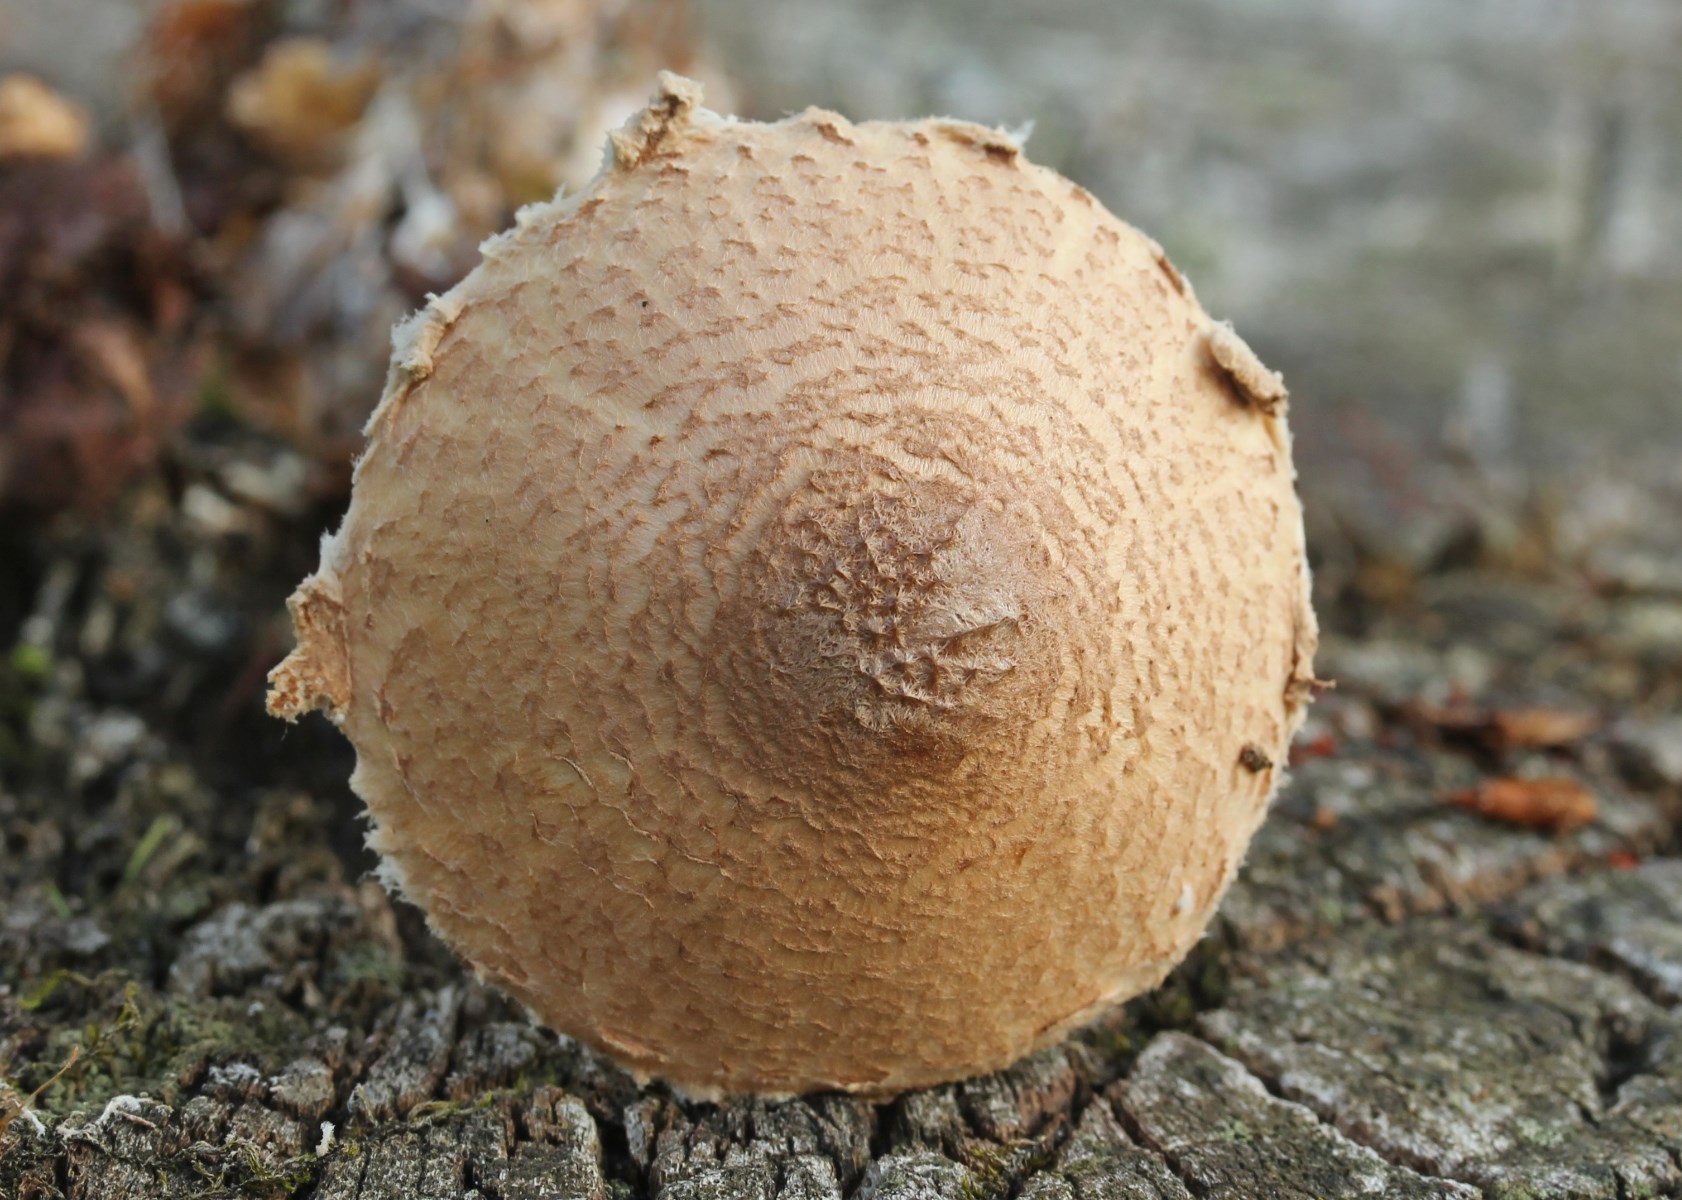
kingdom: Fungi
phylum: Basidiomycota
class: Agaricomycetes
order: Agaricales
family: Agaricaceae
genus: Lepiota
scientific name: Lepiota magnispora
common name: gulfnugget parasolhat
